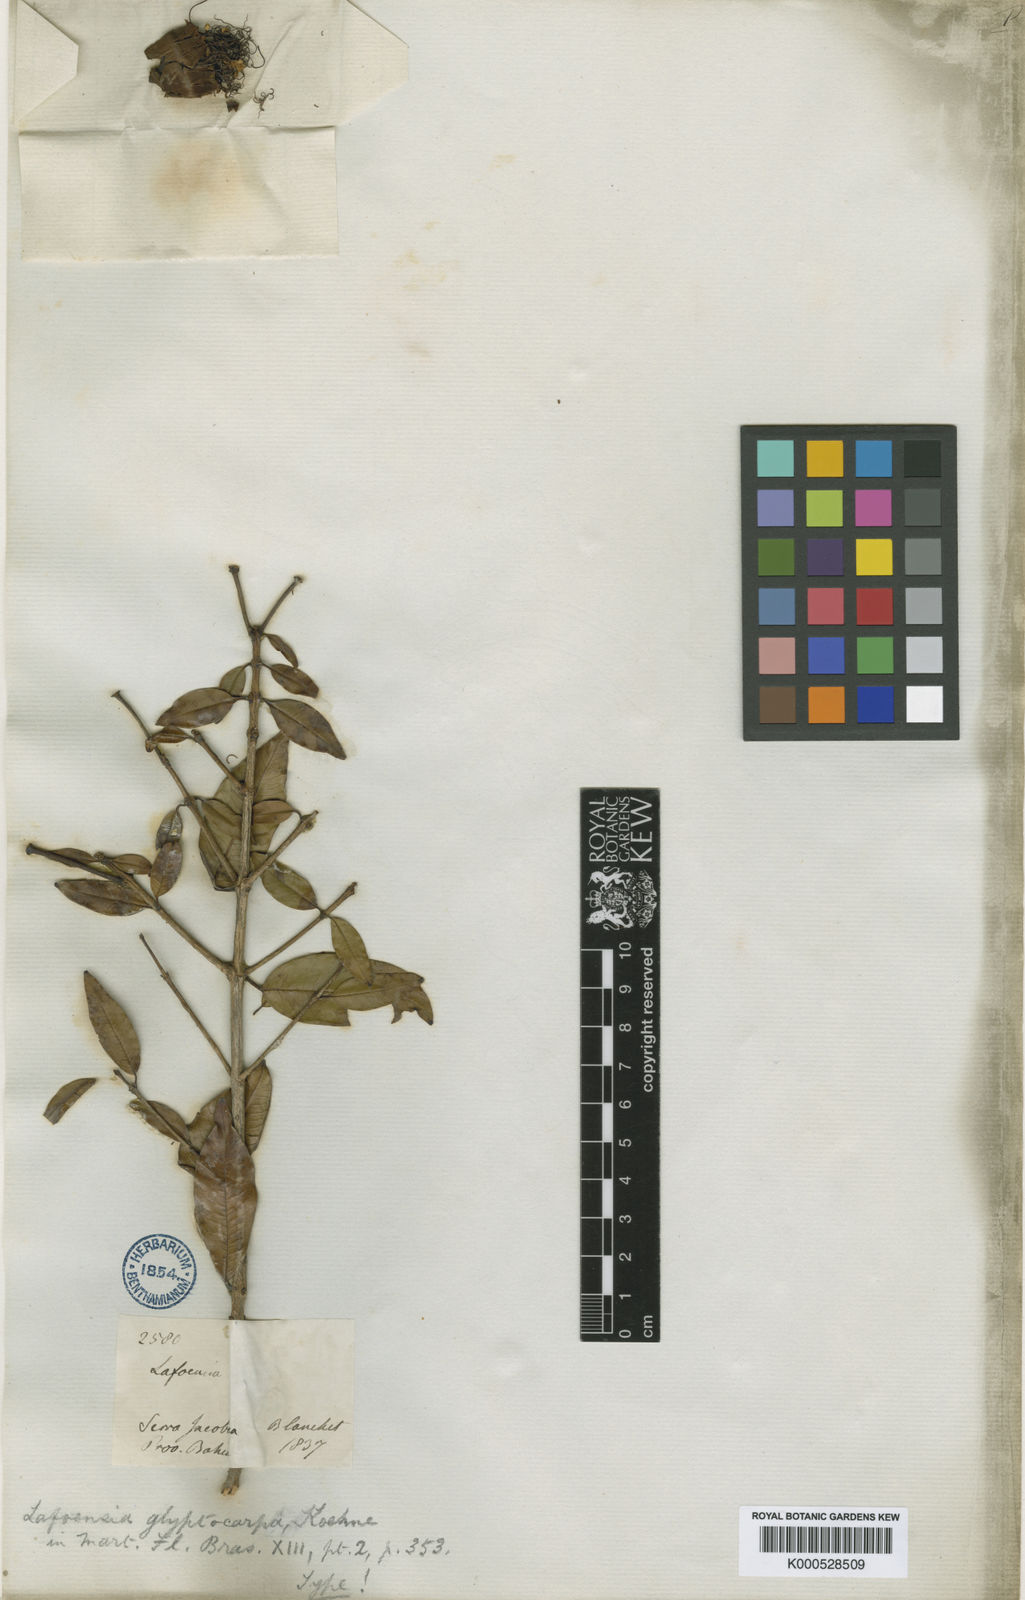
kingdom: Plantae
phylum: Tracheophyta
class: Magnoliopsida
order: Myrtales
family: Lythraceae
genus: Lafoensia
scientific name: Lafoensia glyptocarpa
